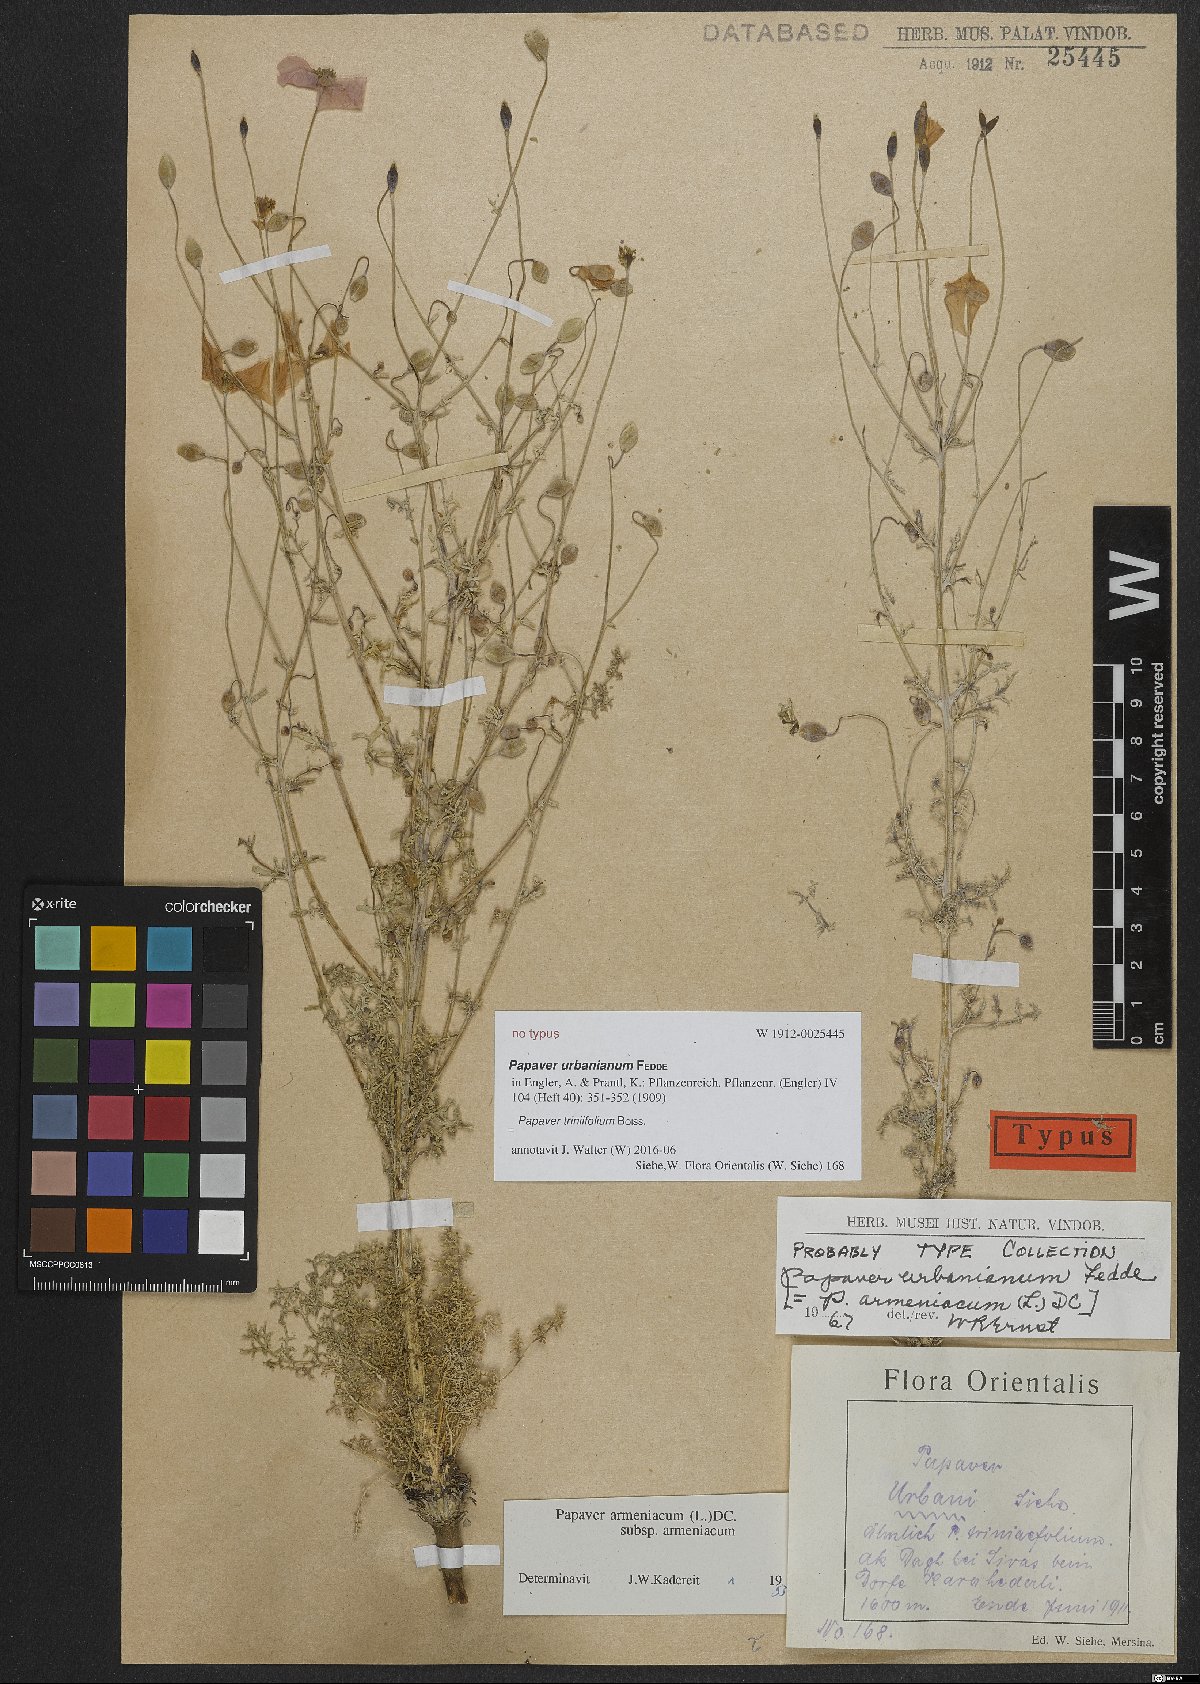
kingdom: Plantae
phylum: Tracheophyta
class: Magnoliopsida
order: Ranunculales
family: Papaveraceae
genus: Papaver
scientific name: Papaver triniifolium
